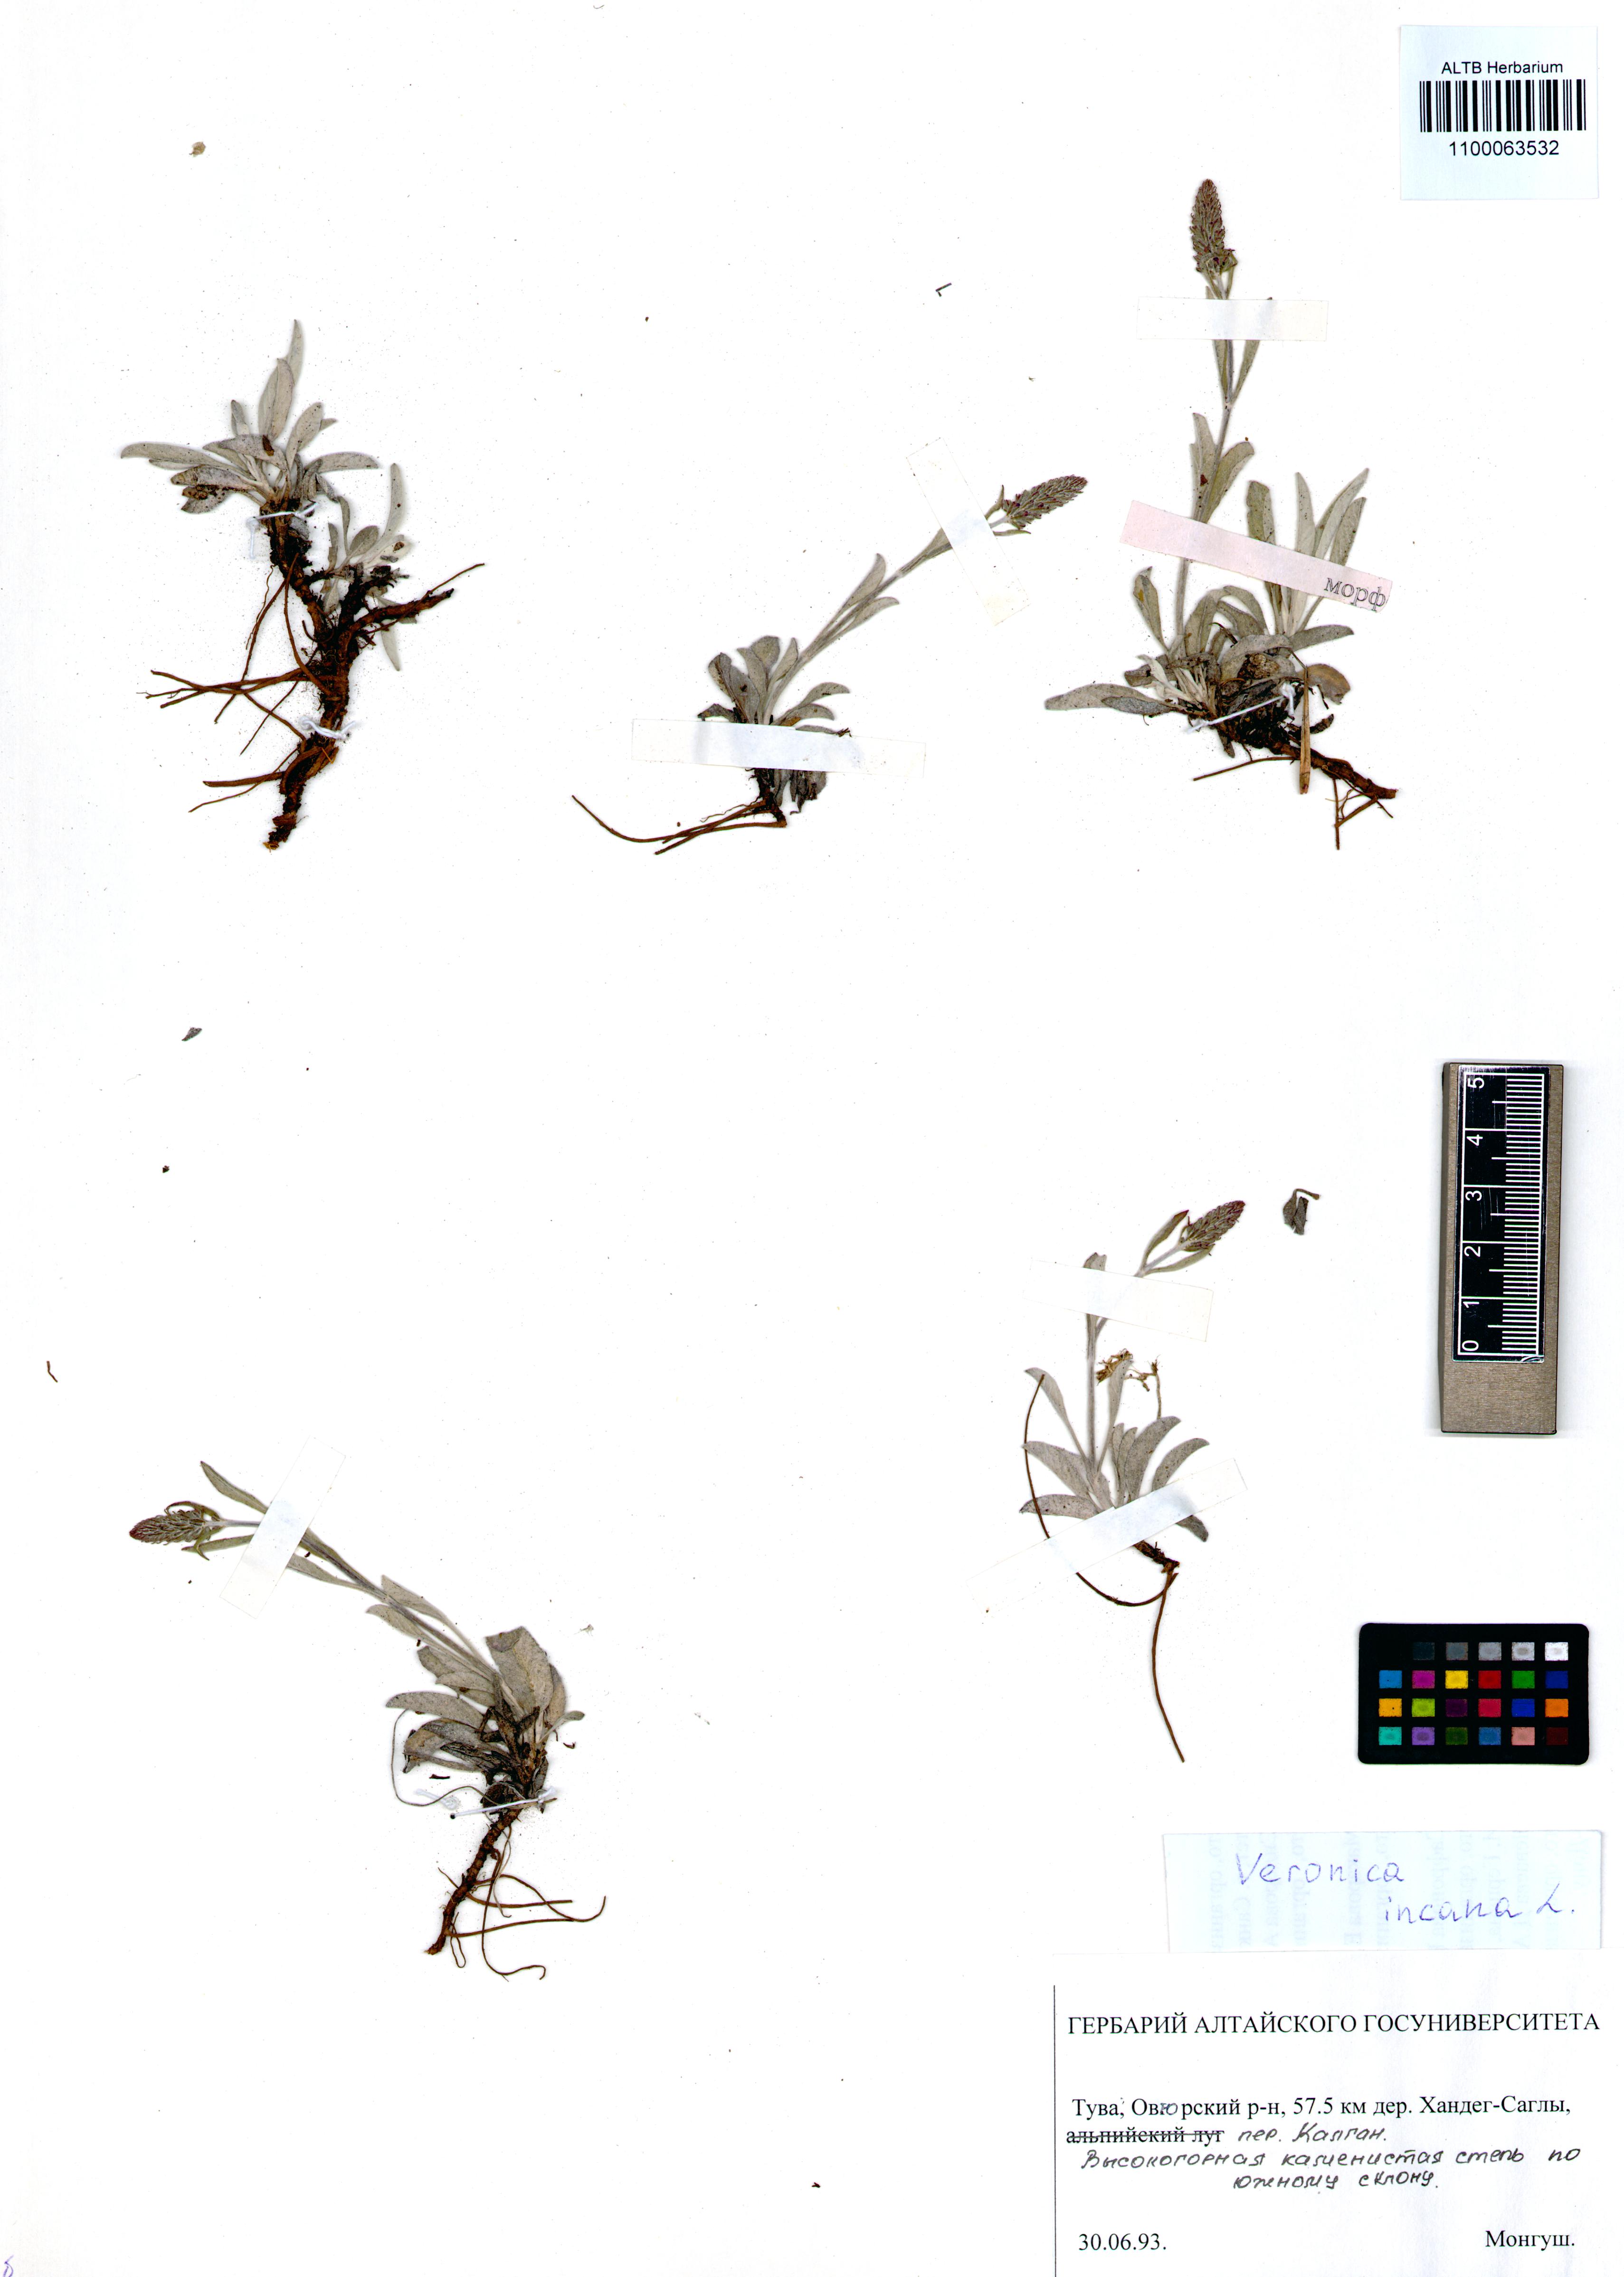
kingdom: Plantae
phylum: Tracheophyta
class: Magnoliopsida
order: Lamiales
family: Plantaginaceae
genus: Veronica
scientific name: Veronica incana
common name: Silver speedwell
